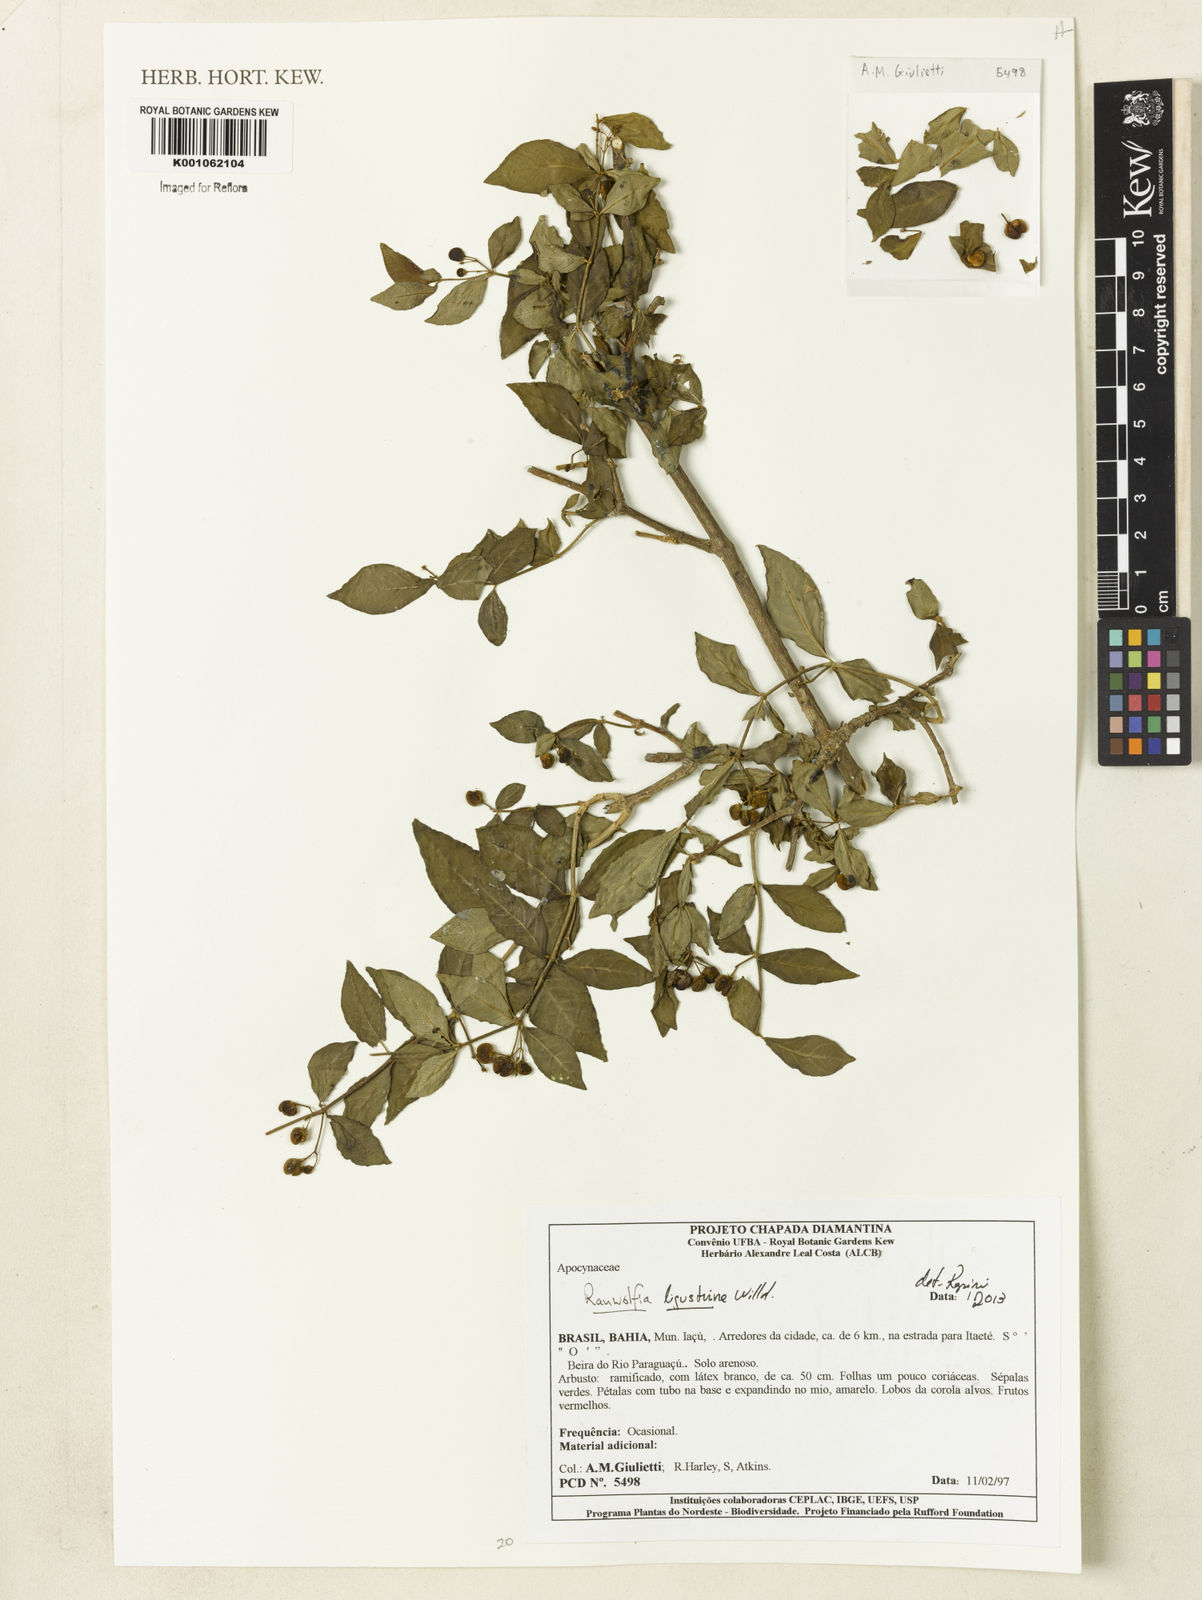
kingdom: Plantae
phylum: Tracheophyta
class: Magnoliopsida
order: Gentianales
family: Apocynaceae
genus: Rauvolfia
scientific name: Rauvolfia
